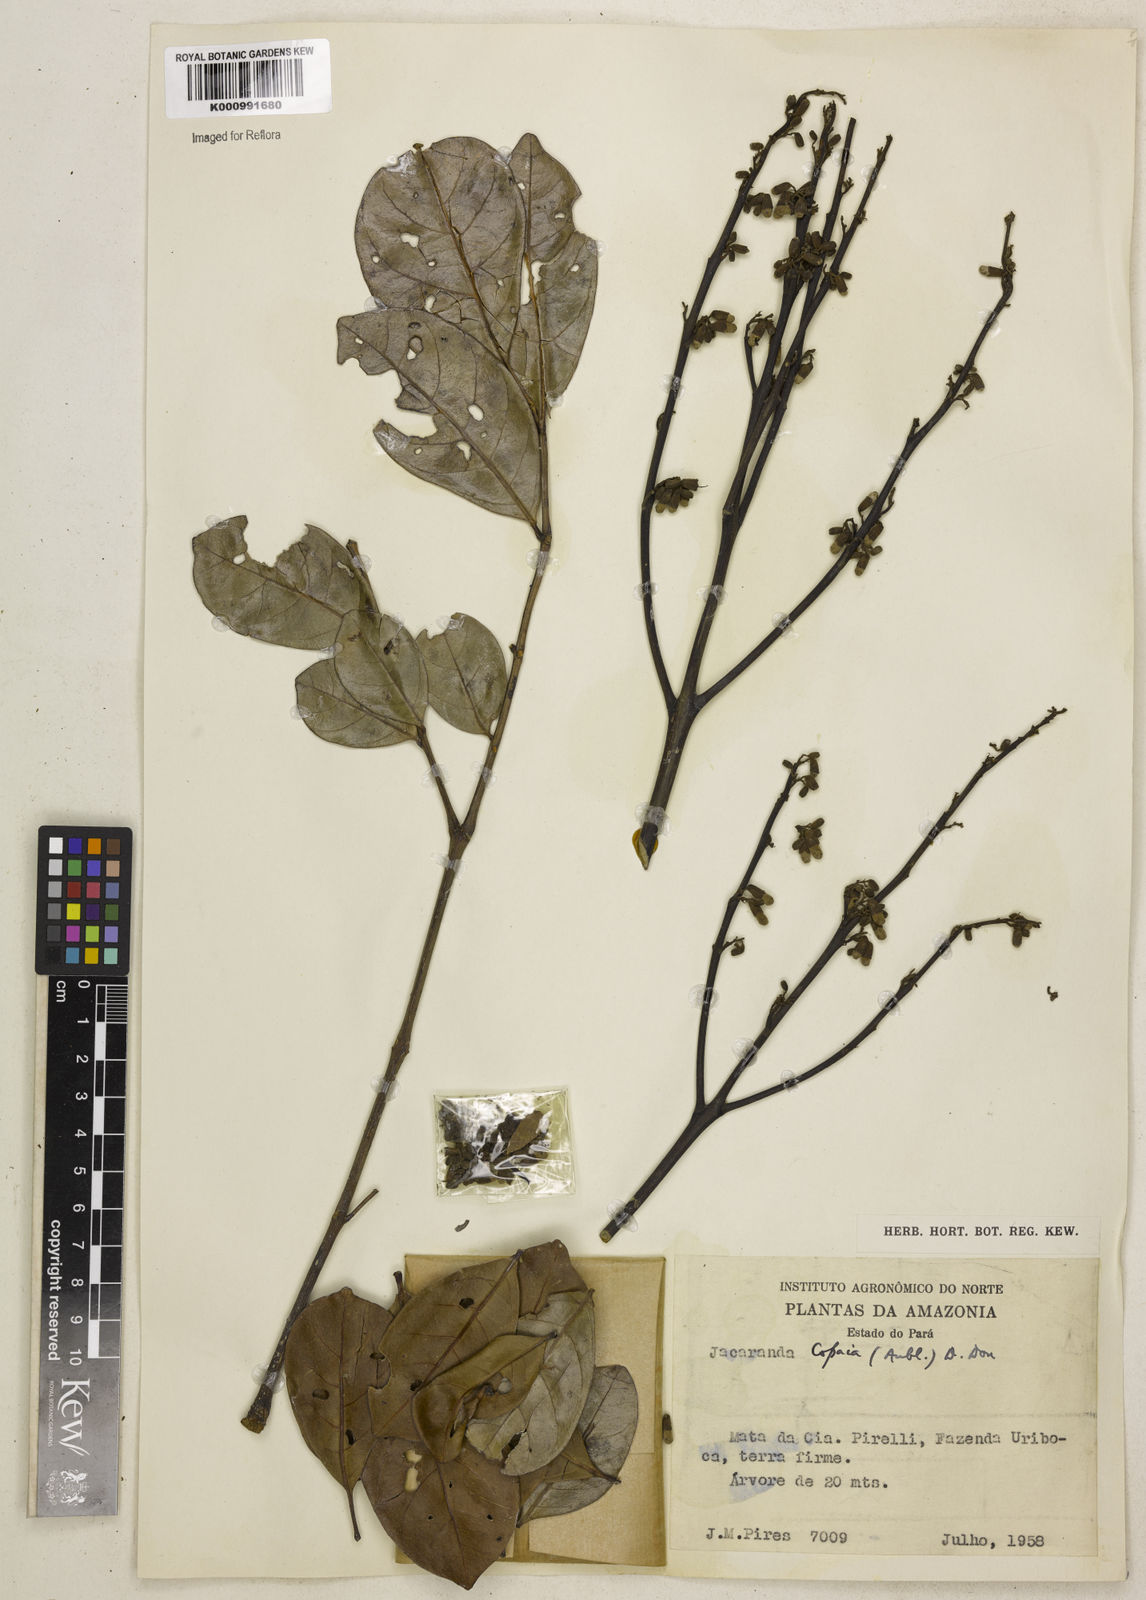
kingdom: Plantae
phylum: Tracheophyta
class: Magnoliopsida
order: Lamiales
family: Bignoniaceae
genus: Jacaranda
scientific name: Jacaranda
